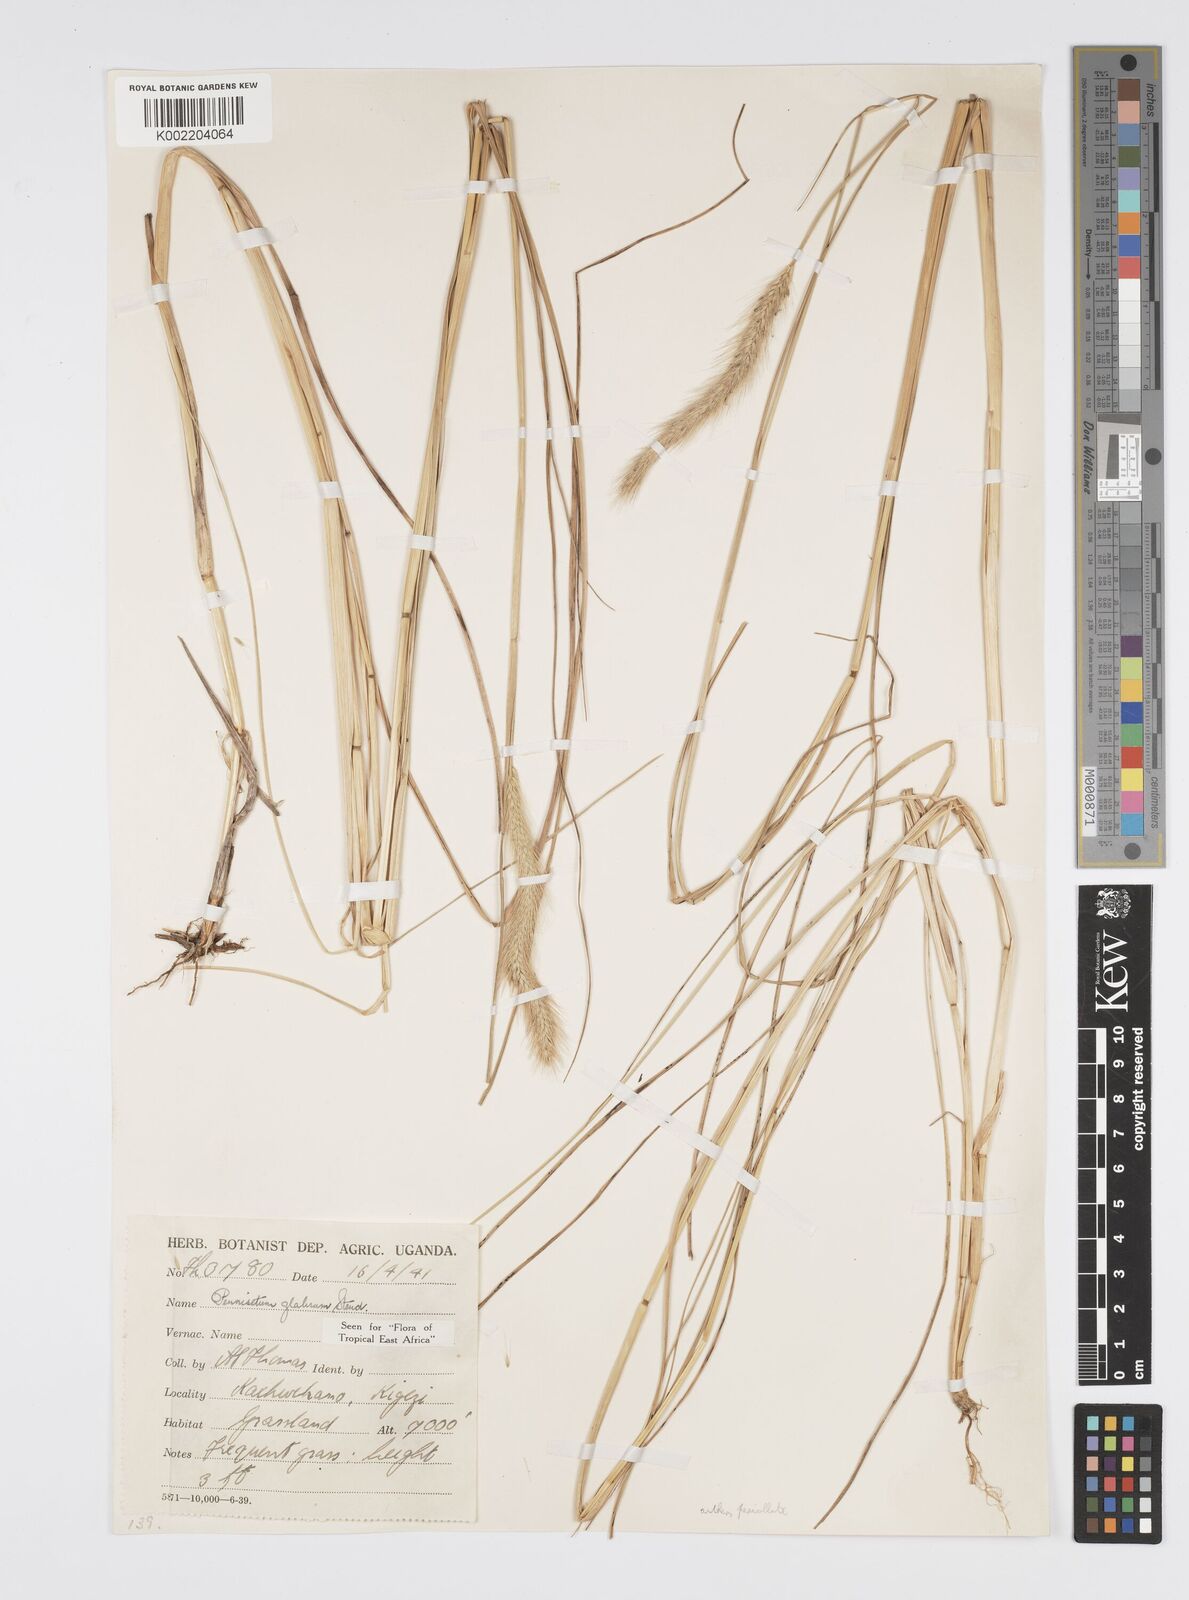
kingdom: Plantae
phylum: Tracheophyta
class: Liliopsida
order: Poales
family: Poaceae
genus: Cenchrus
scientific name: Cenchrus geniculatus
